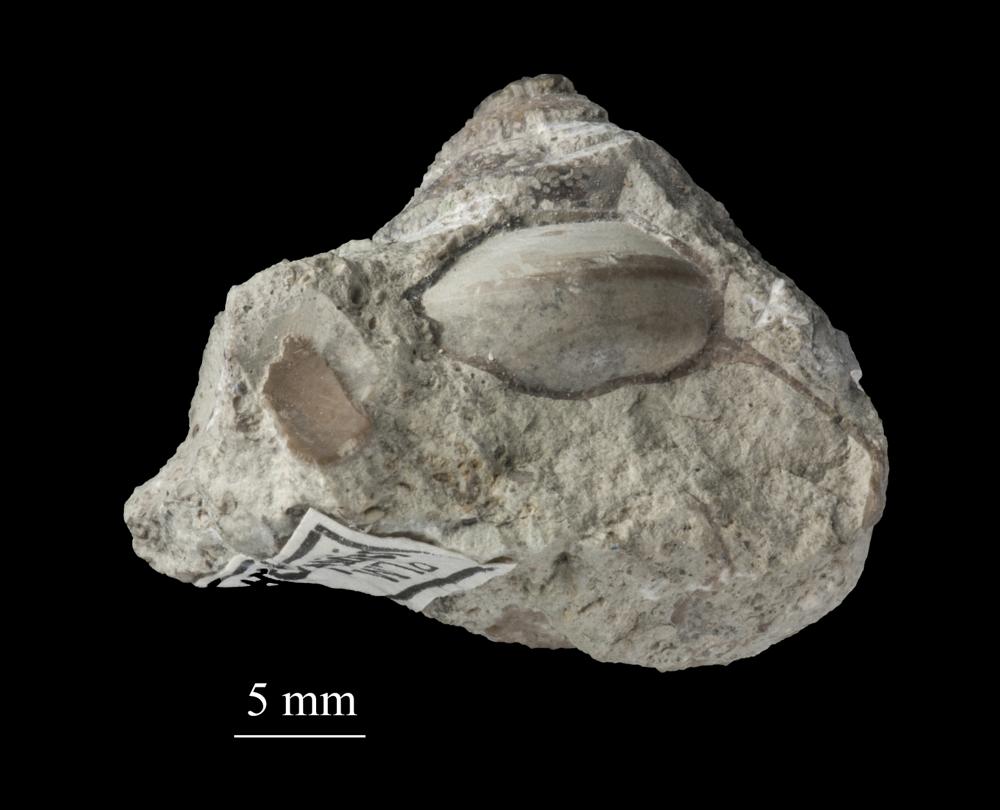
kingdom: Animalia
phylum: Mollusca
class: Gastropoda
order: Neogastropoda
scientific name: Neogastropoda
